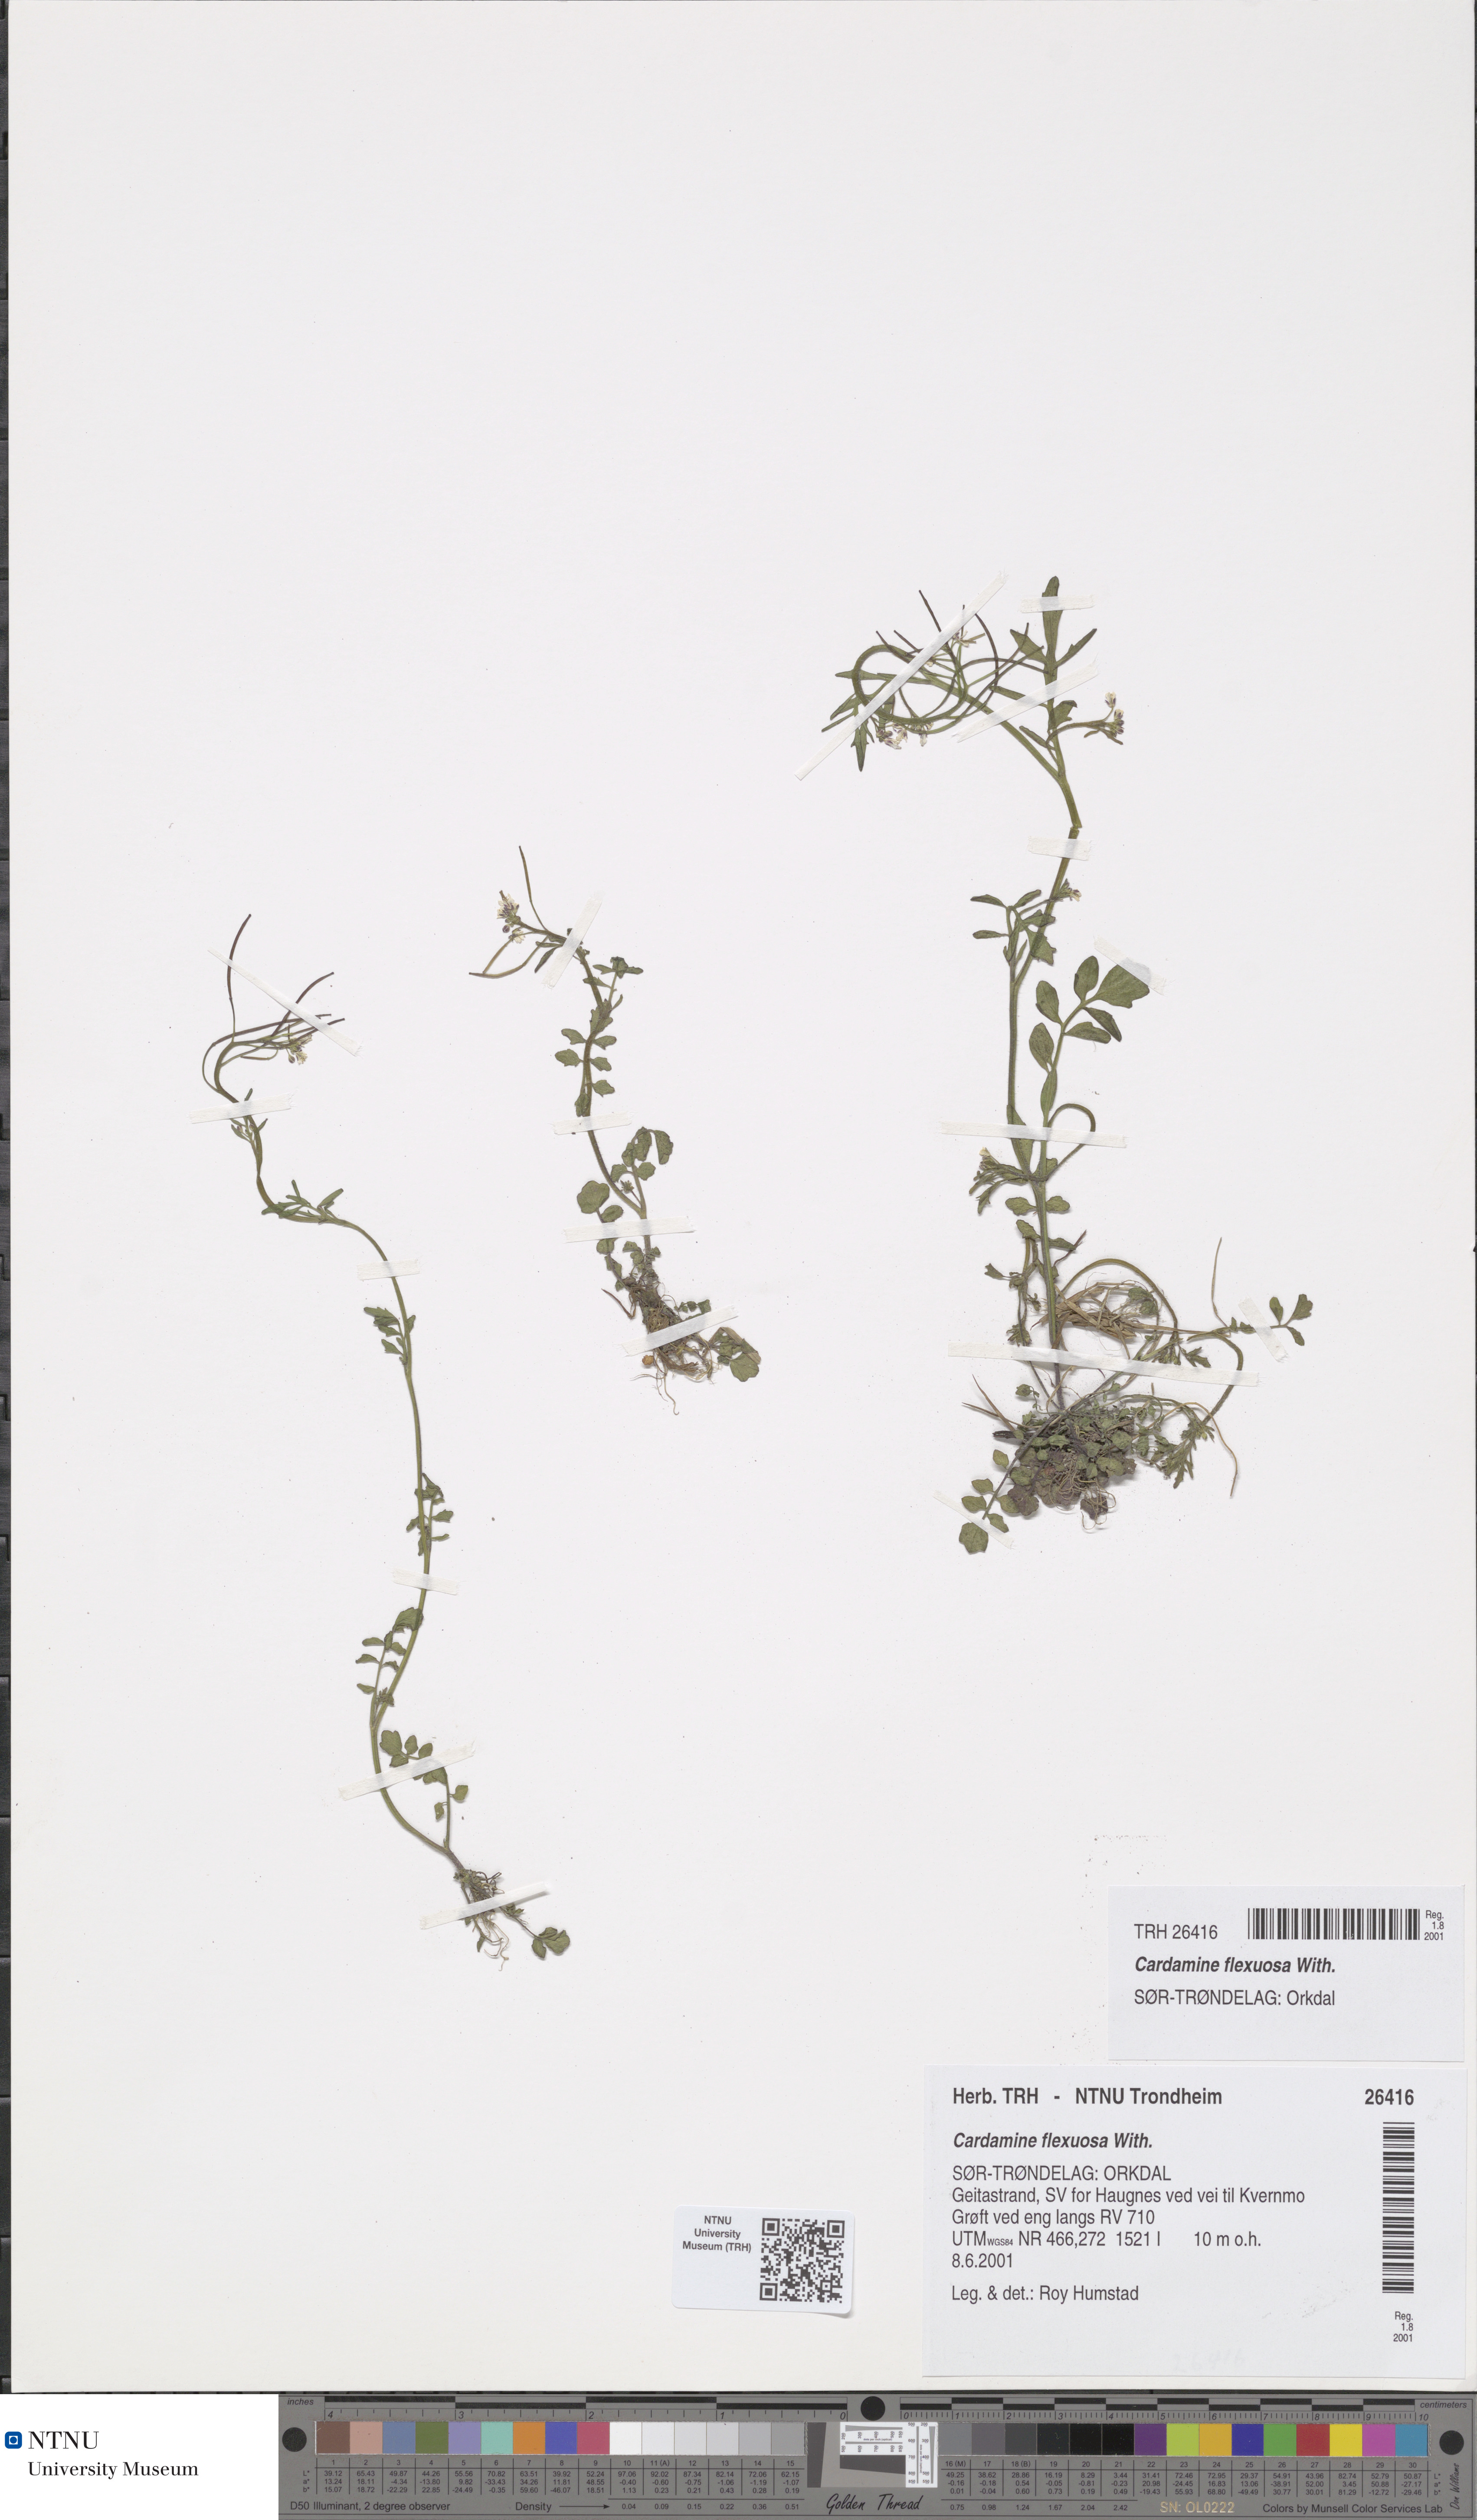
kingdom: Plantae
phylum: Tracheophyta
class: Magnoliopsida
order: Brassicales
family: Brassicaceae
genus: Cardamine
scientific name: Cardamine flexuosa
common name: Woodland bittercress
